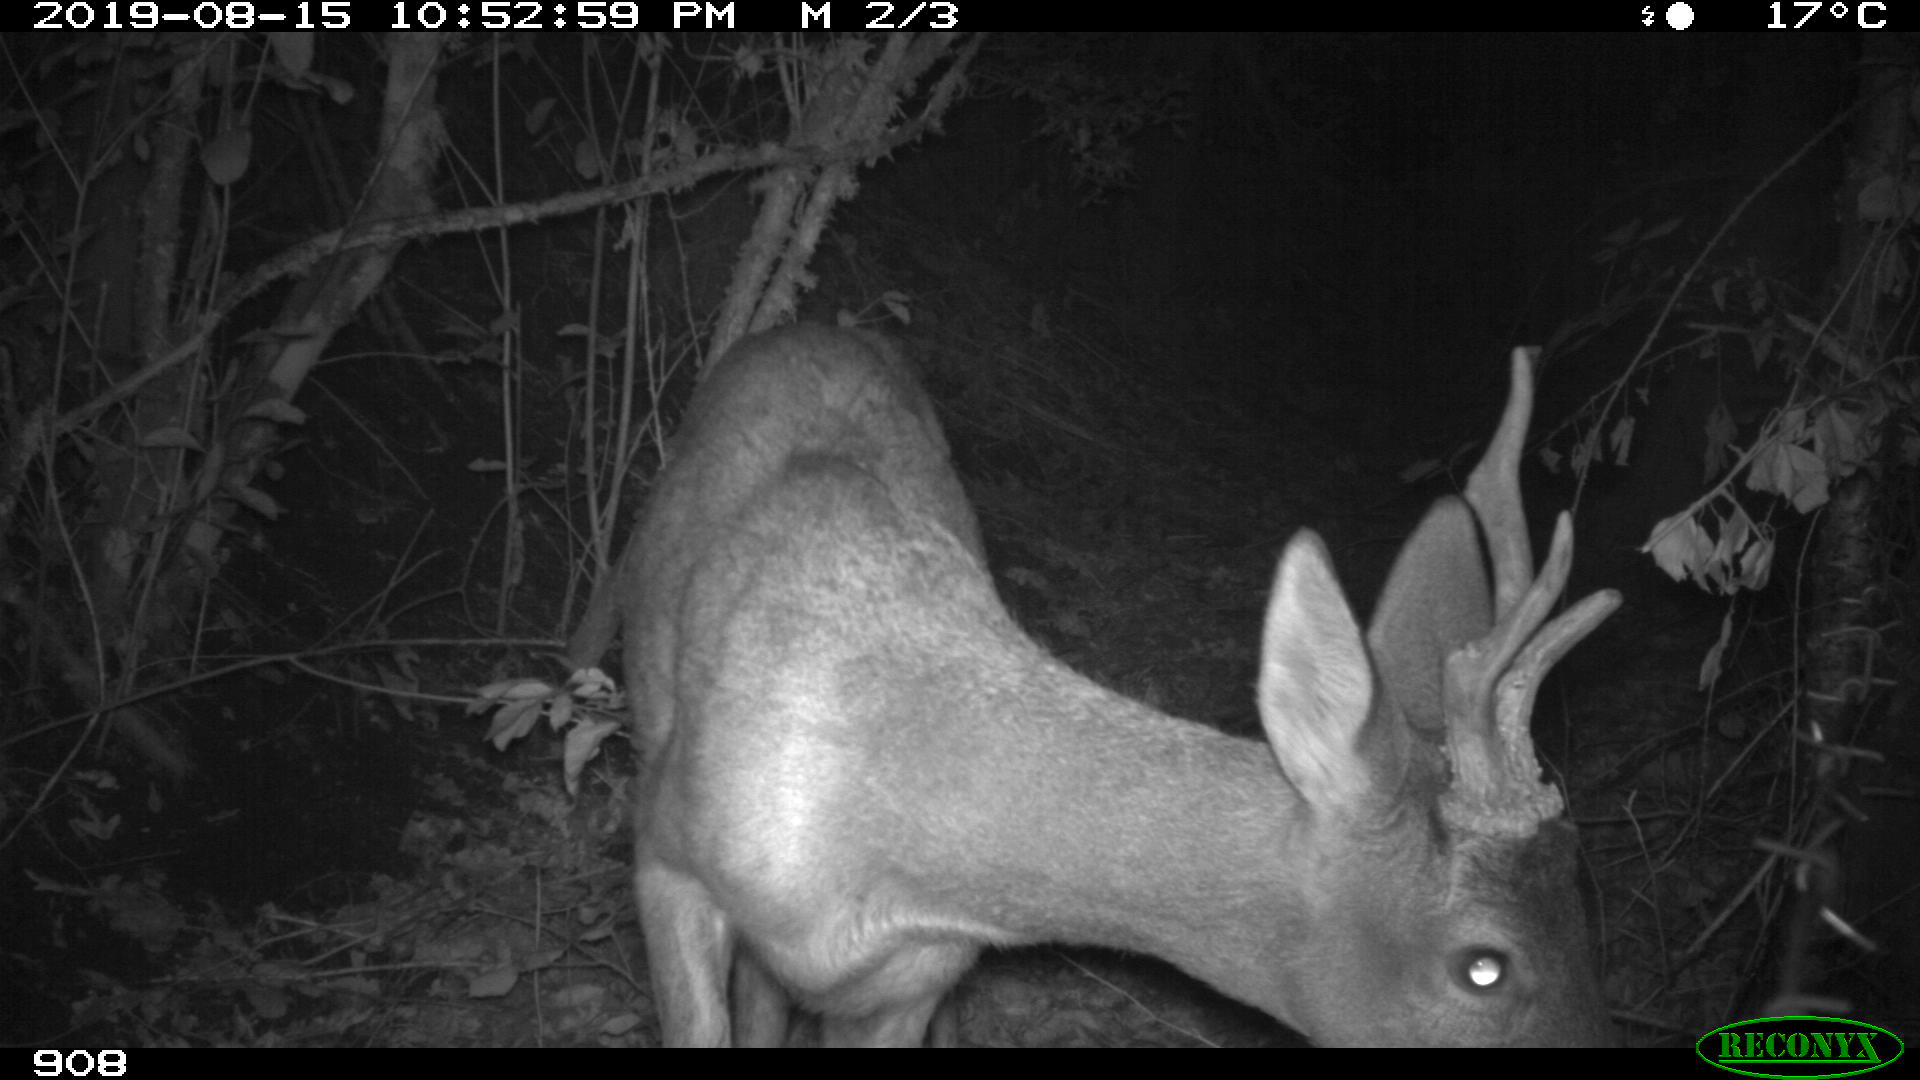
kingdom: Animalia
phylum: Chordata
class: Mammalia
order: Artiodactyla
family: Cervidae
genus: Capreolus
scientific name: Capreolus capreolus
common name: Western roe deer
